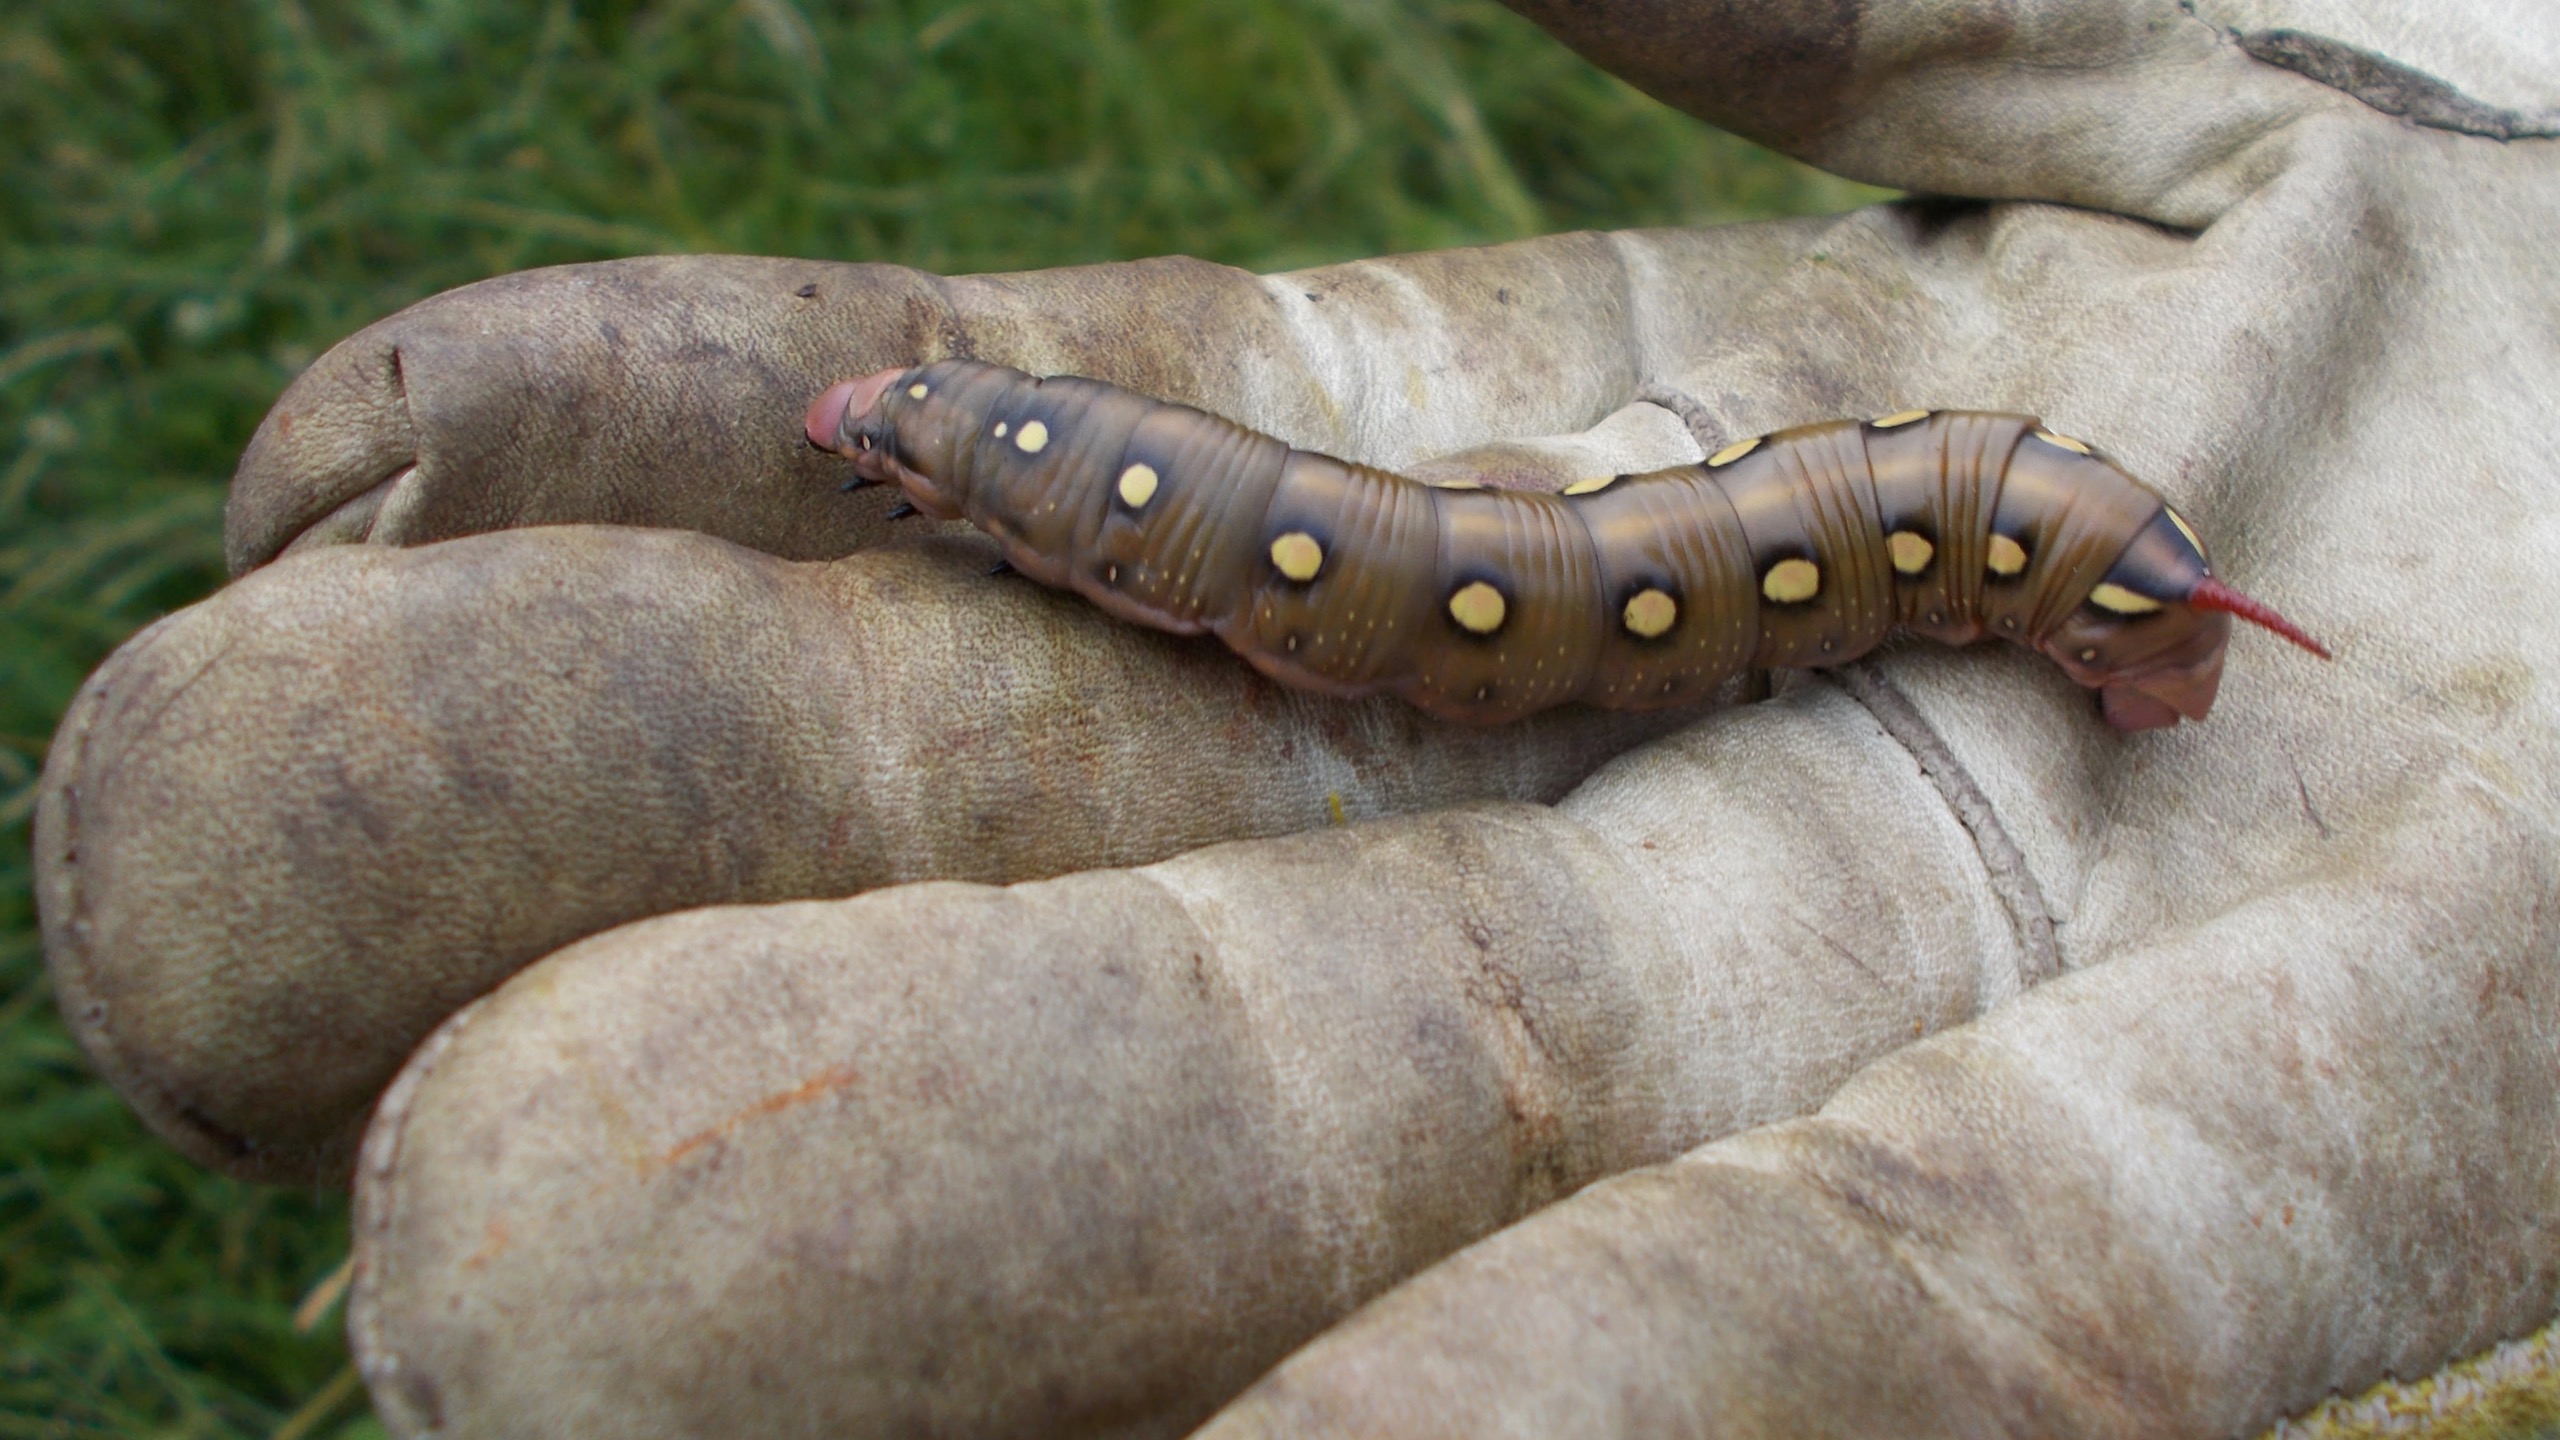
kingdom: Animalia
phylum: Arthropoda
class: Insecta
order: Lepidoptera
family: Sphingidae
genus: Hyles
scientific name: Hyles gallii
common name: Snerresværmer
